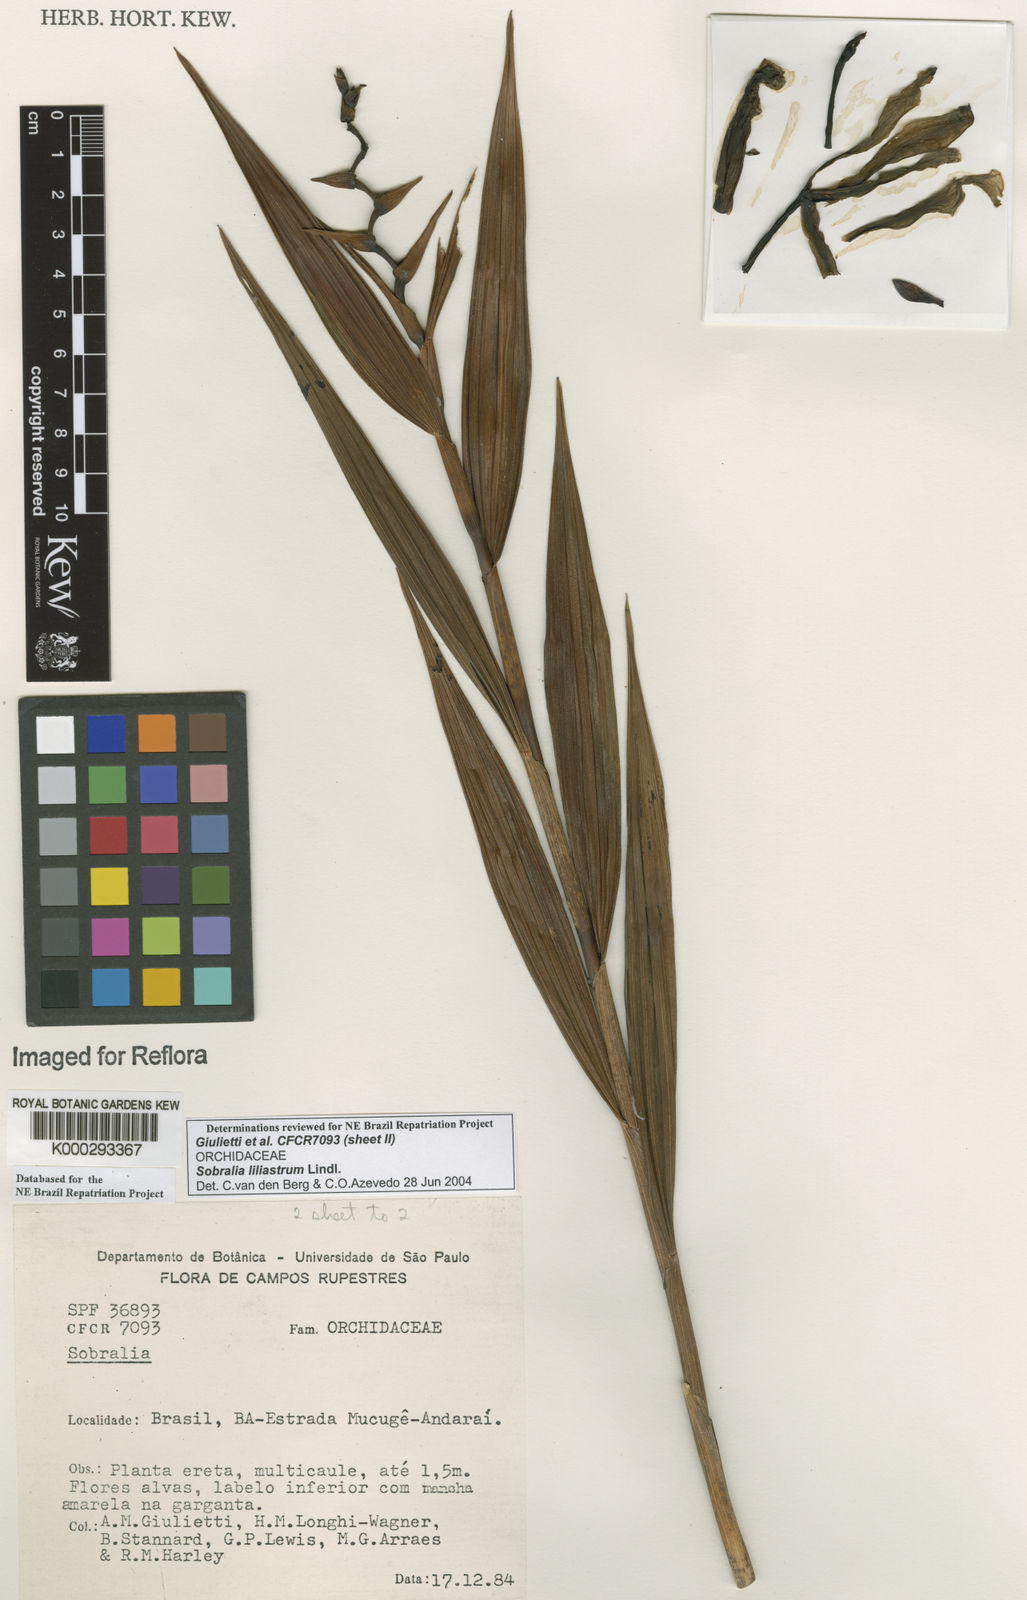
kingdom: Plantae
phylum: Tracheophyta
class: Liliopsida
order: Asparagales
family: Orchidaceae
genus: Sobralia
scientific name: Sobralia liliastrum
